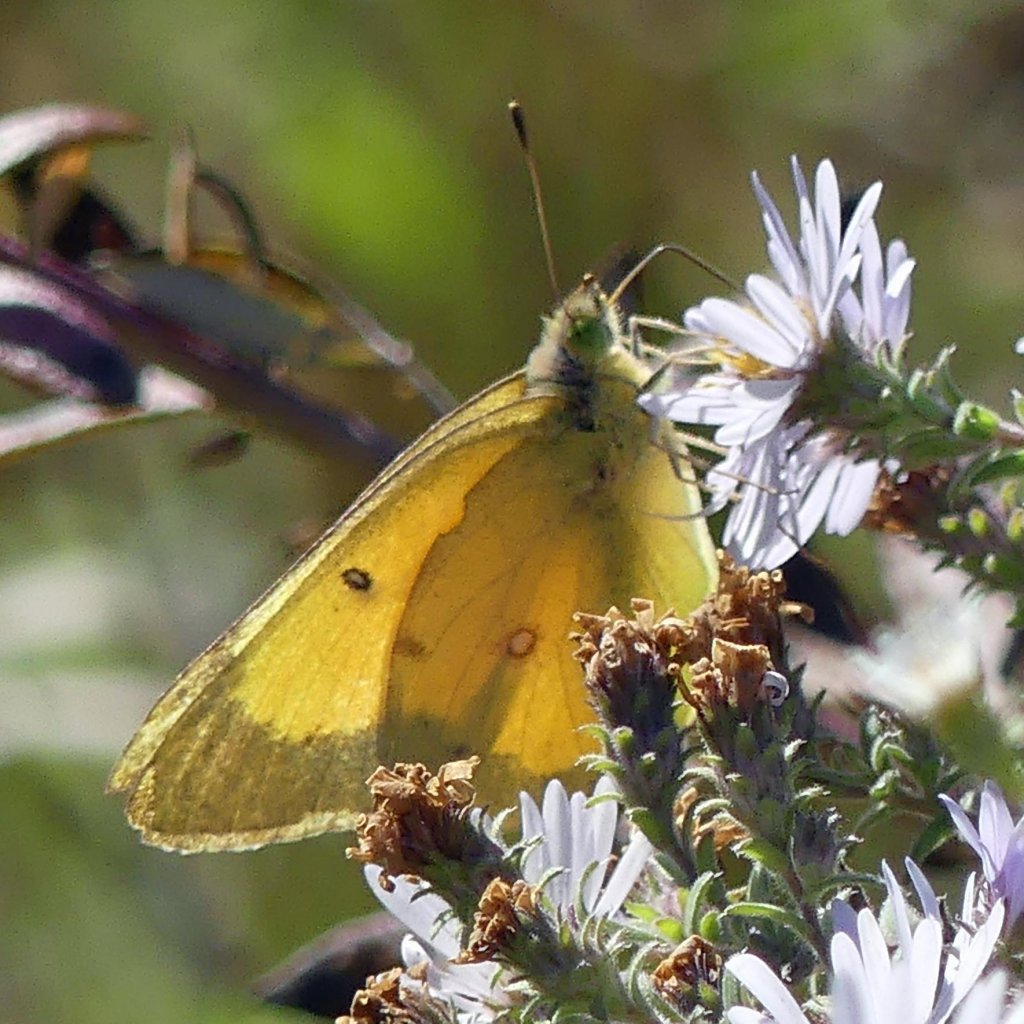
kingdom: Animalia
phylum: Arthropoda
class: Insecta
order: Lepidoptera
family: Pieridae
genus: Colias
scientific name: Colias eurytheme
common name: Orange Sulphur
